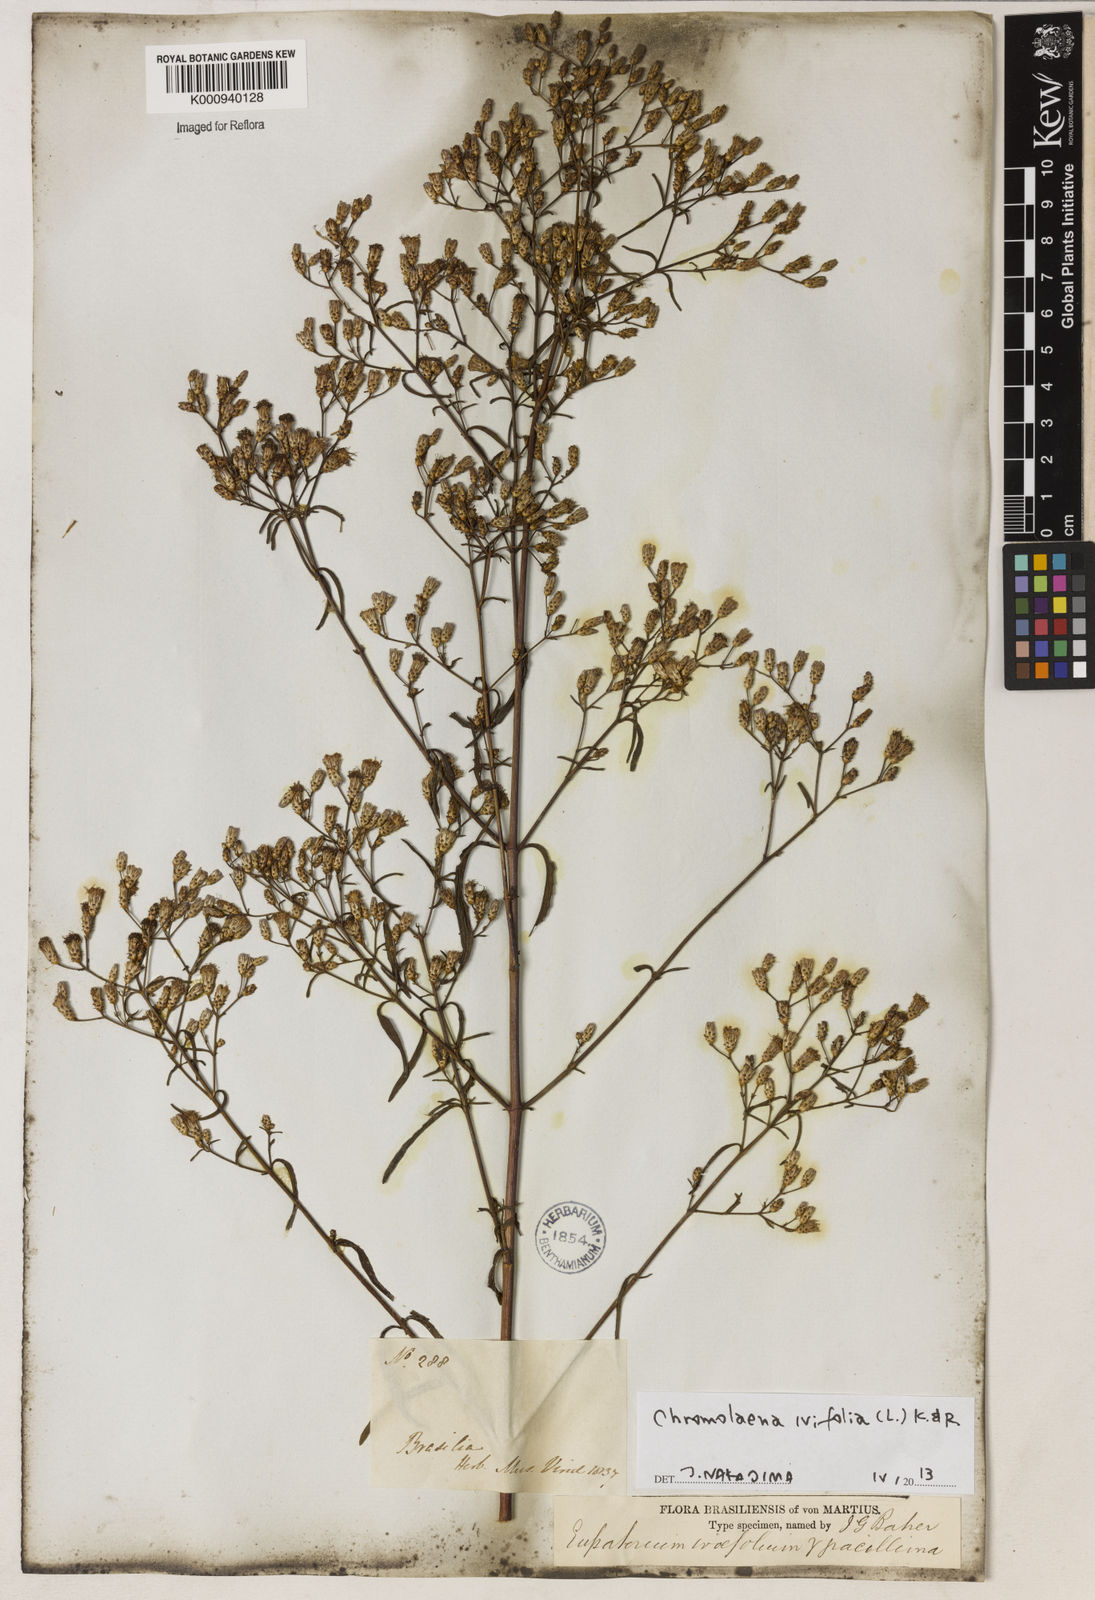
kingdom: Plantae
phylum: Tracheophyta
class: Magnoliopsida
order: Asterales
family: Asteraceae
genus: Chromolaena
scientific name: Chromolaena ivifolia
